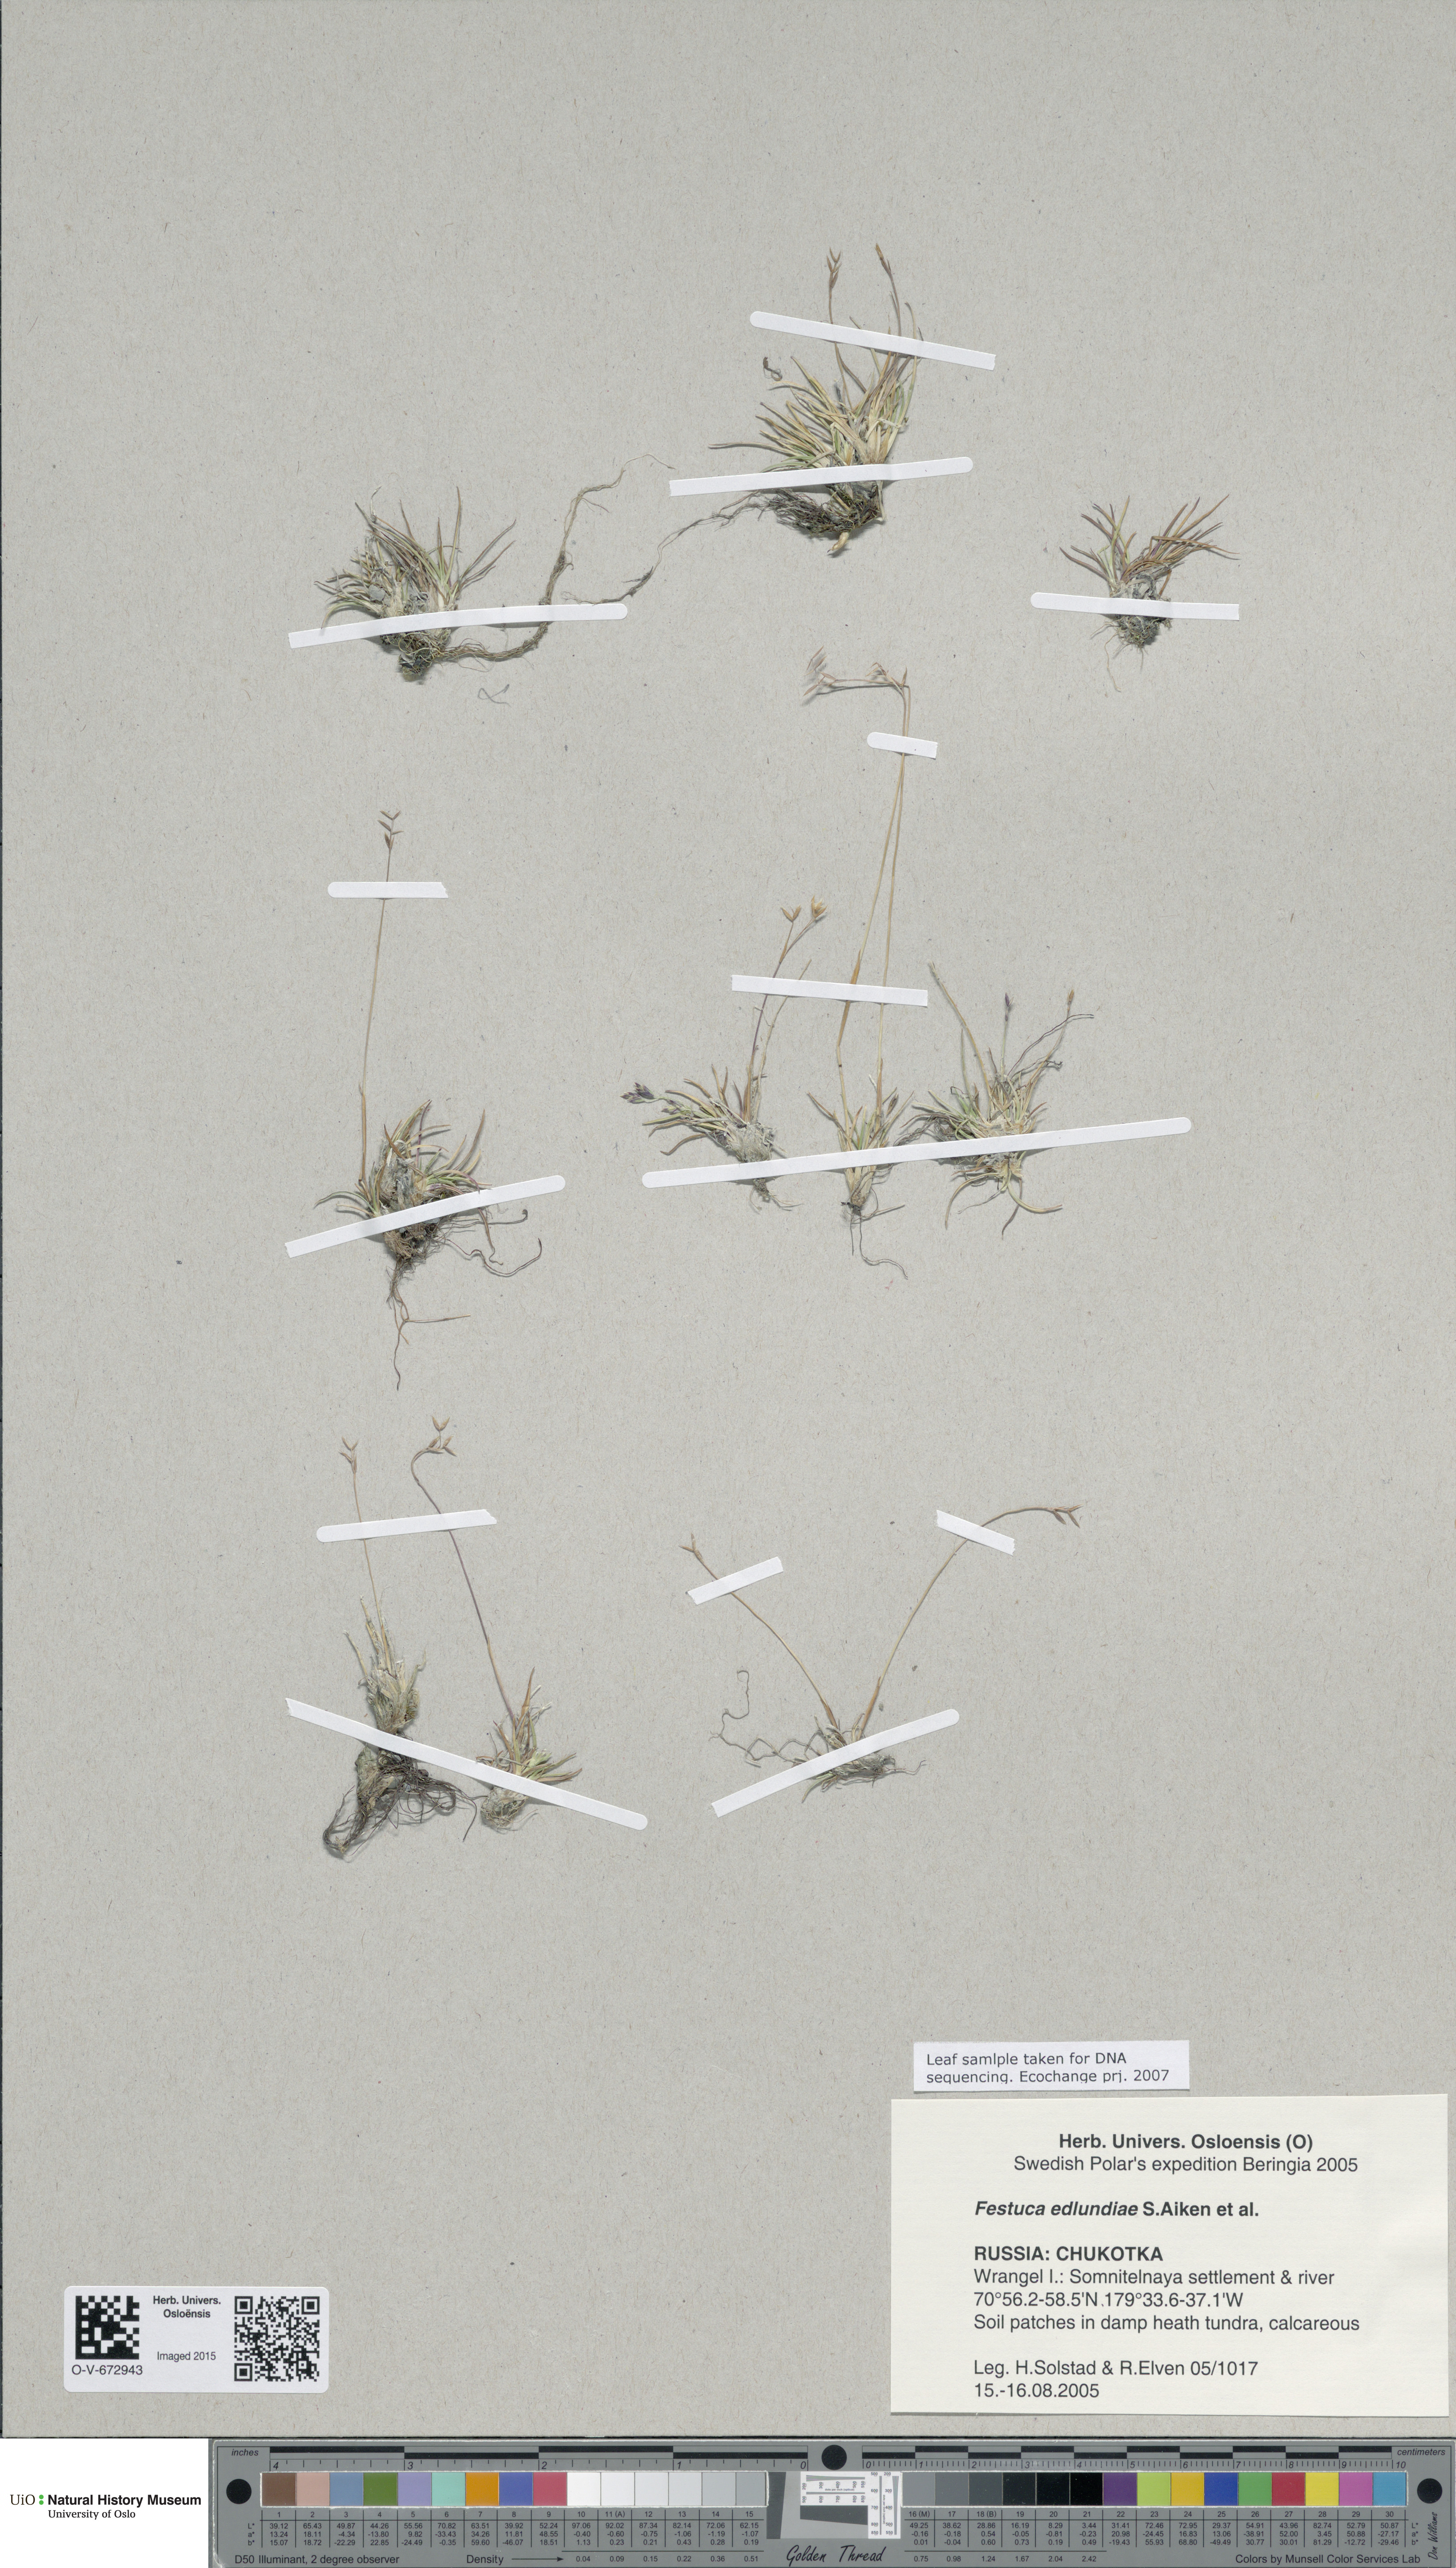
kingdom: Plantae
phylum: Tracheophyta
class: Liliopsida
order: Poales
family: Poaceae
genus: Festuca
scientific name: Festuca edlundiae
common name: Edlund's fescue
